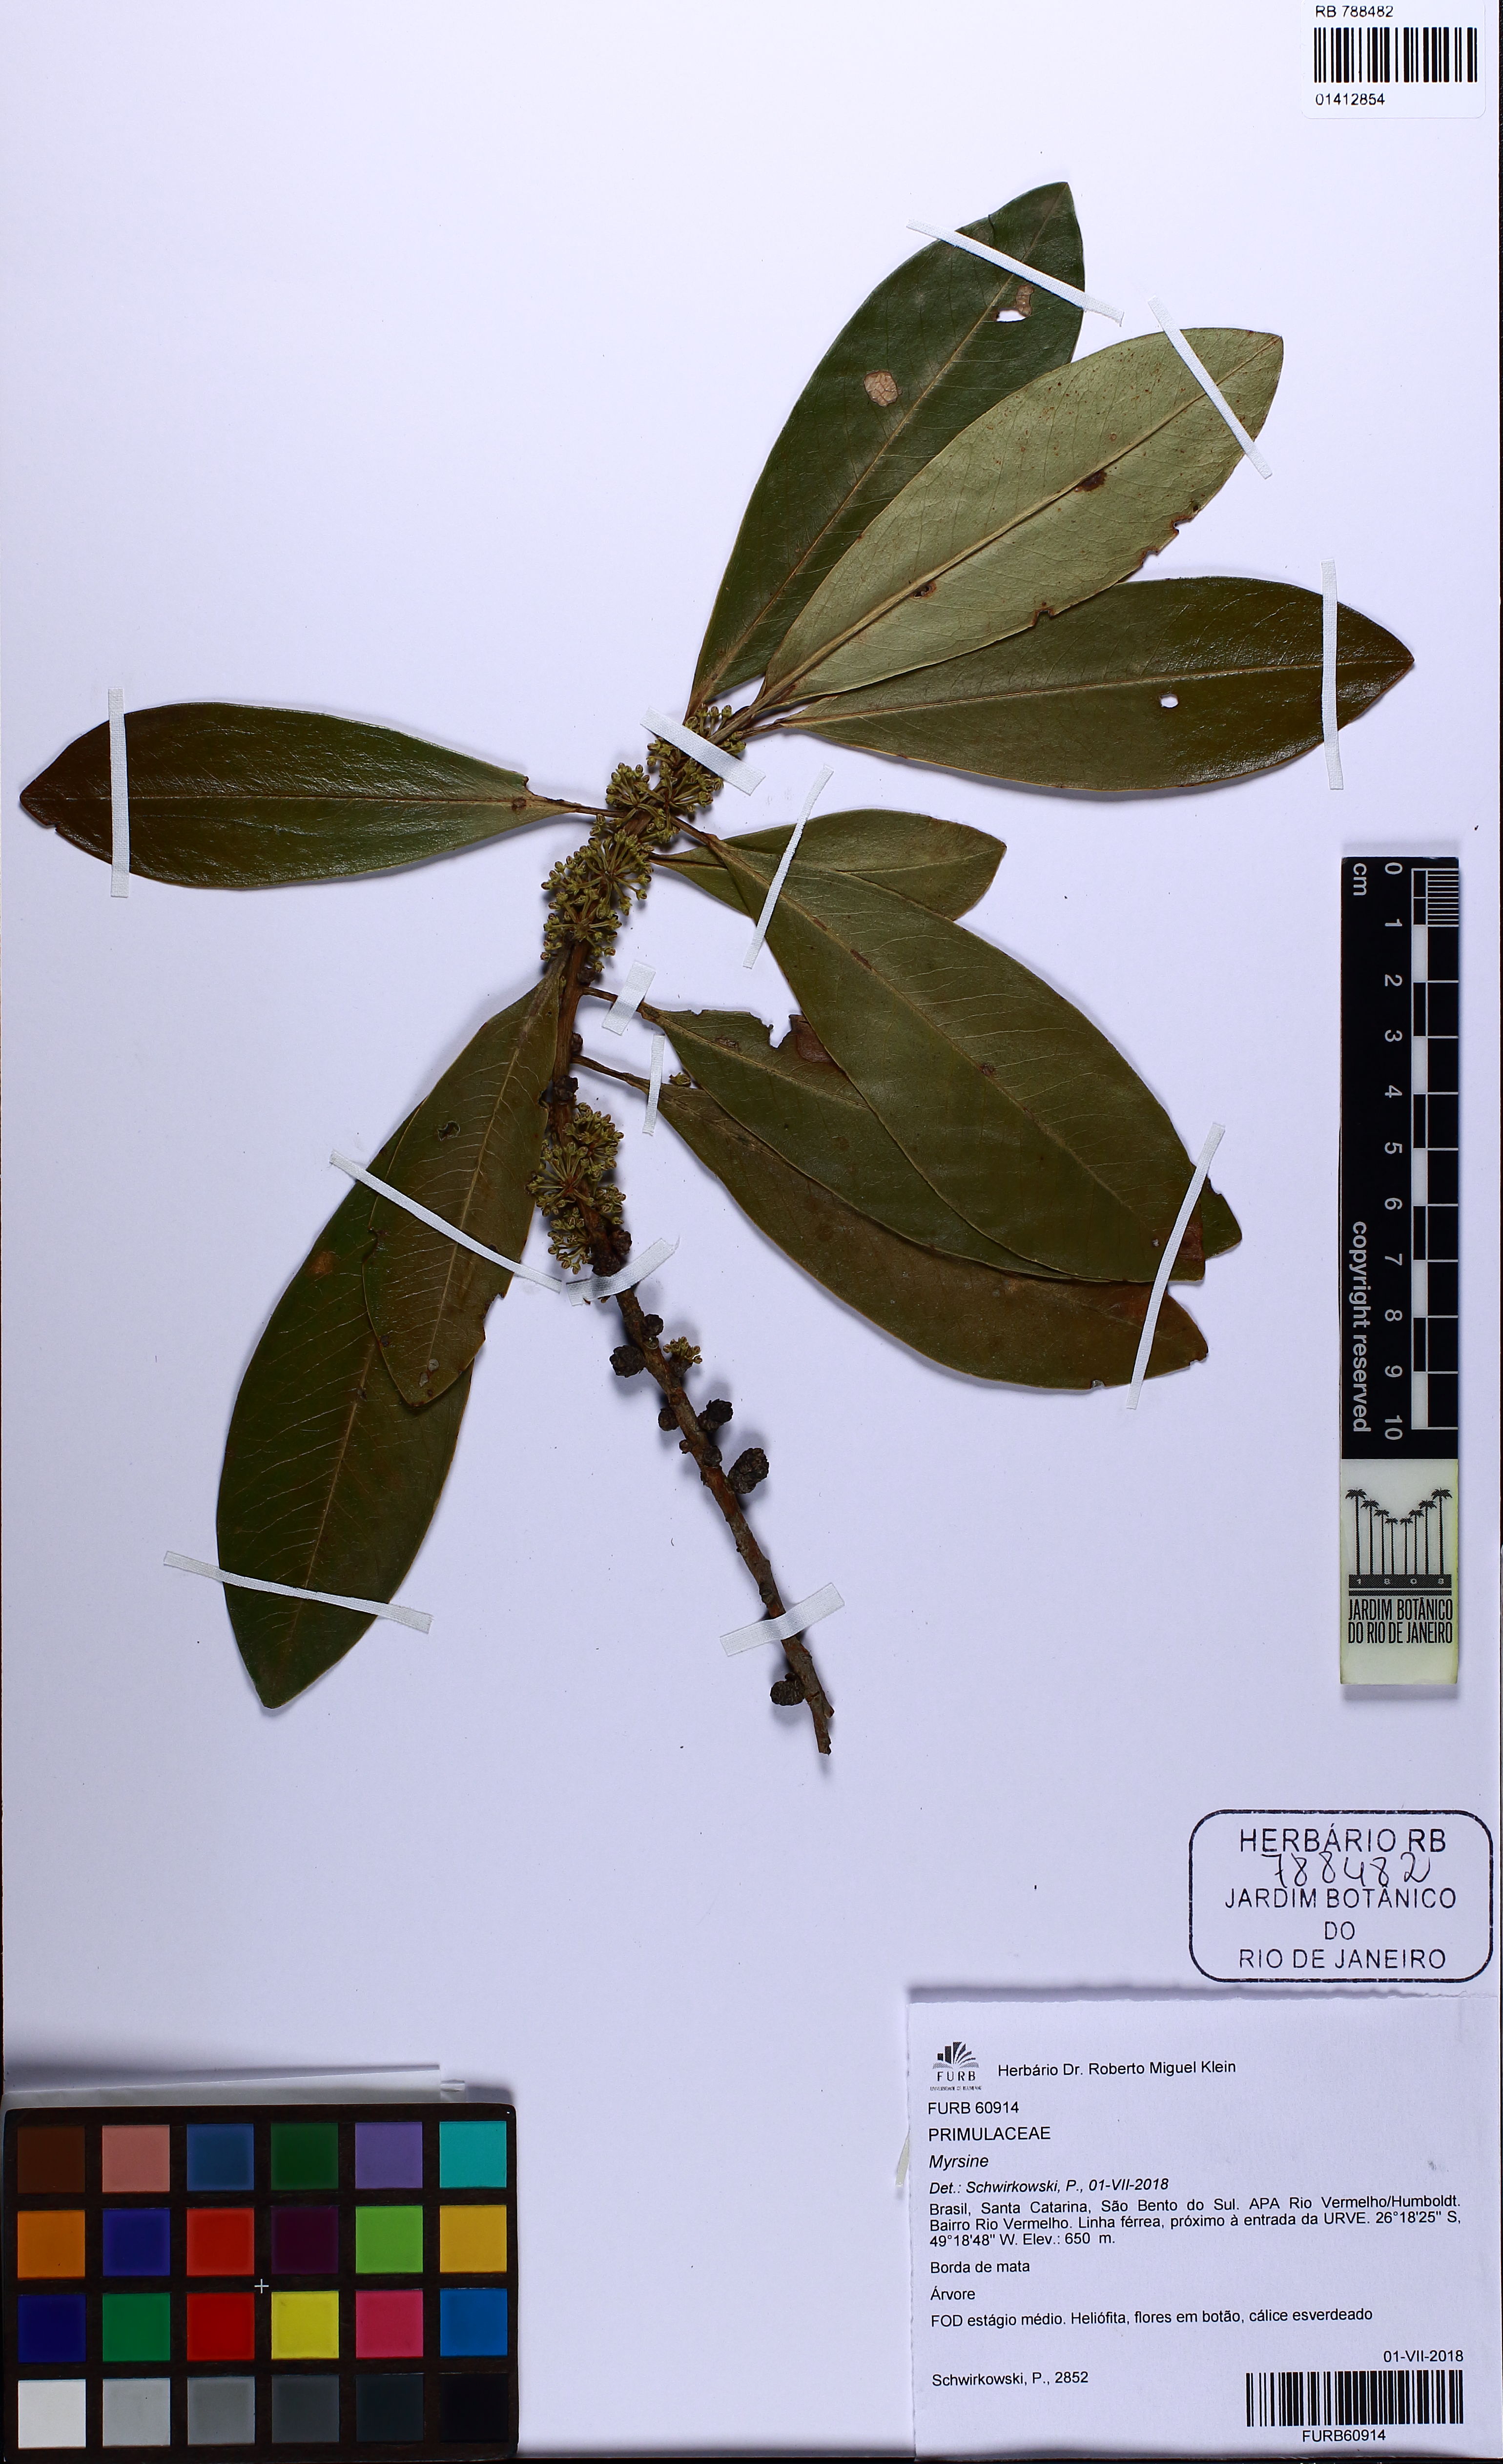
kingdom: Plantae
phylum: Tracheophyta
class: Magnoliopsida
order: Ericales
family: Primulaceae
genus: Myrsine
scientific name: Myrsine umbellata
